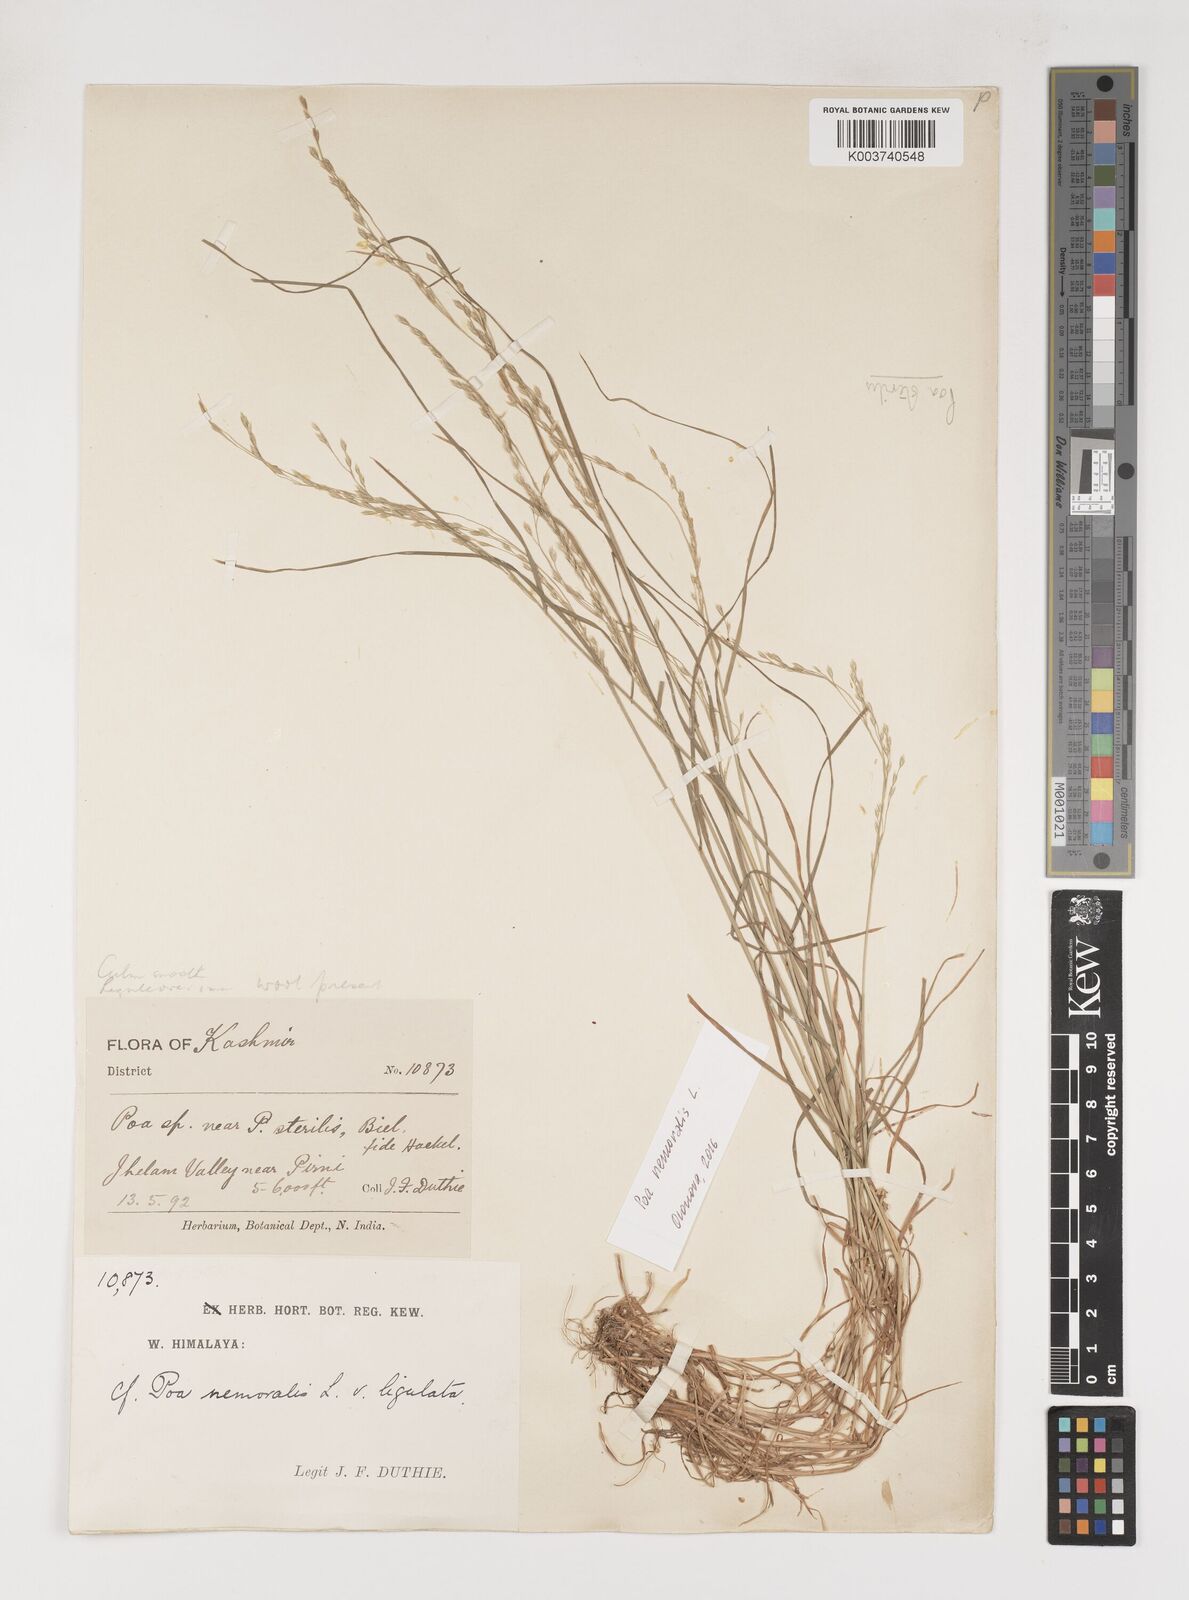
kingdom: Plantae
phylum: Tracheophyta
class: Liliopsida
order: Poales
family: Poaceae
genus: Poa
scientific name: Poa sterilis
